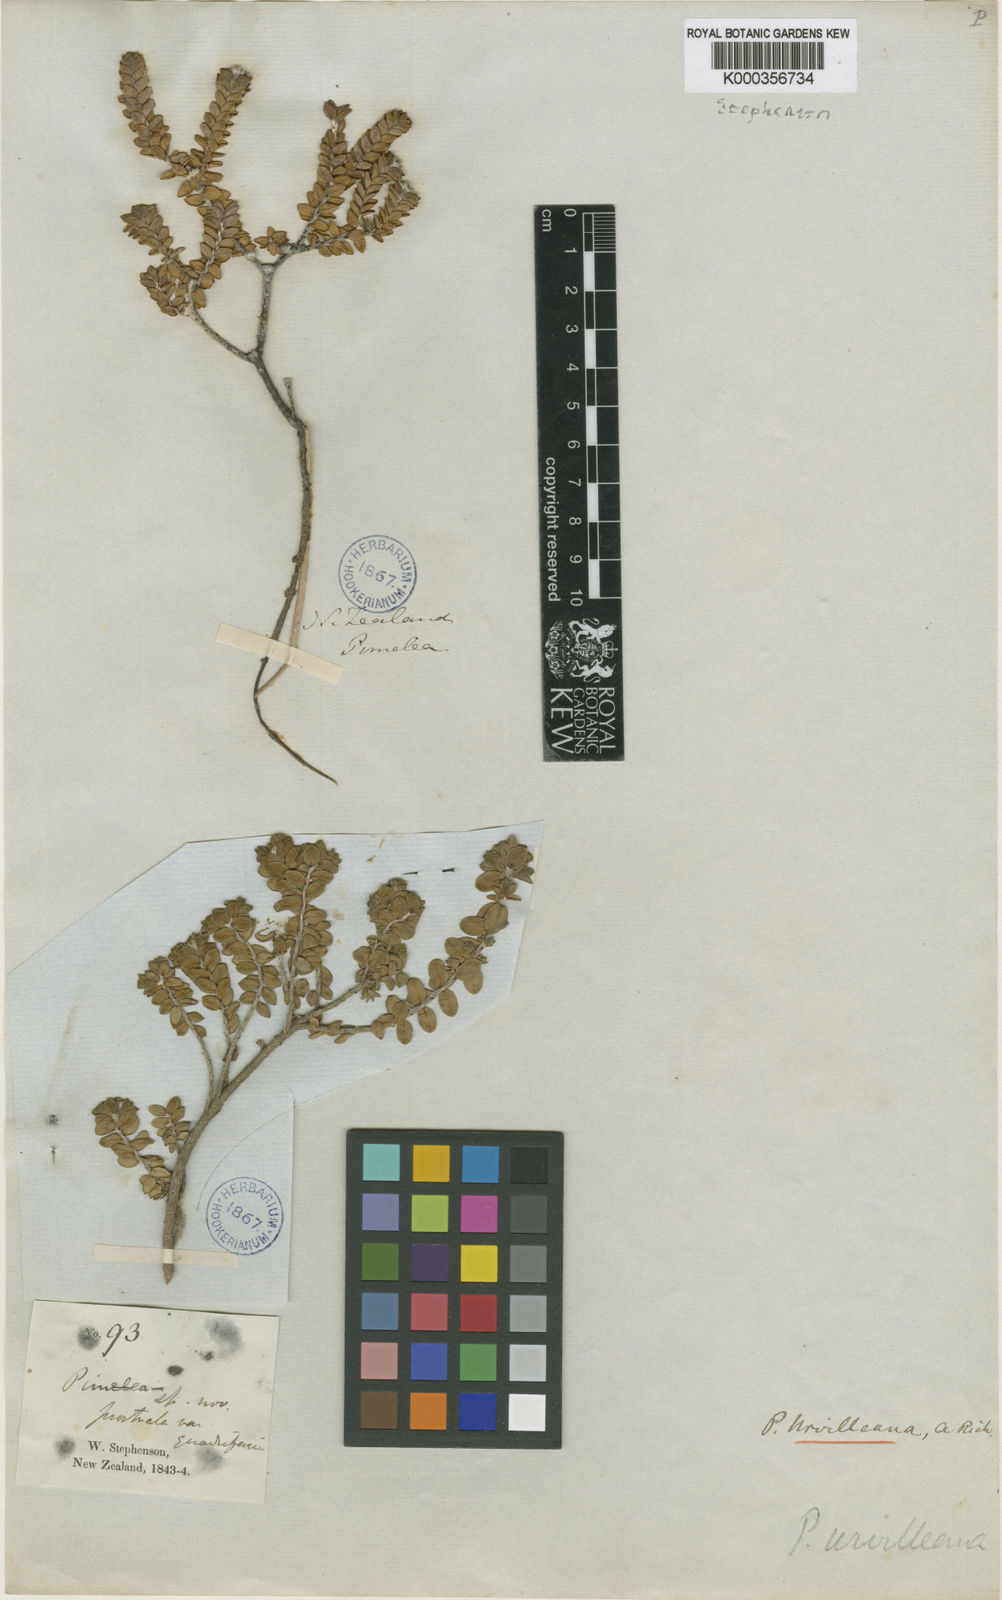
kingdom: Plantae
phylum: Tracheophyta
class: Magnoliopsida
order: Malvales
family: Thymelaeaceae
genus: Pimelea
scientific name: Pimelea
